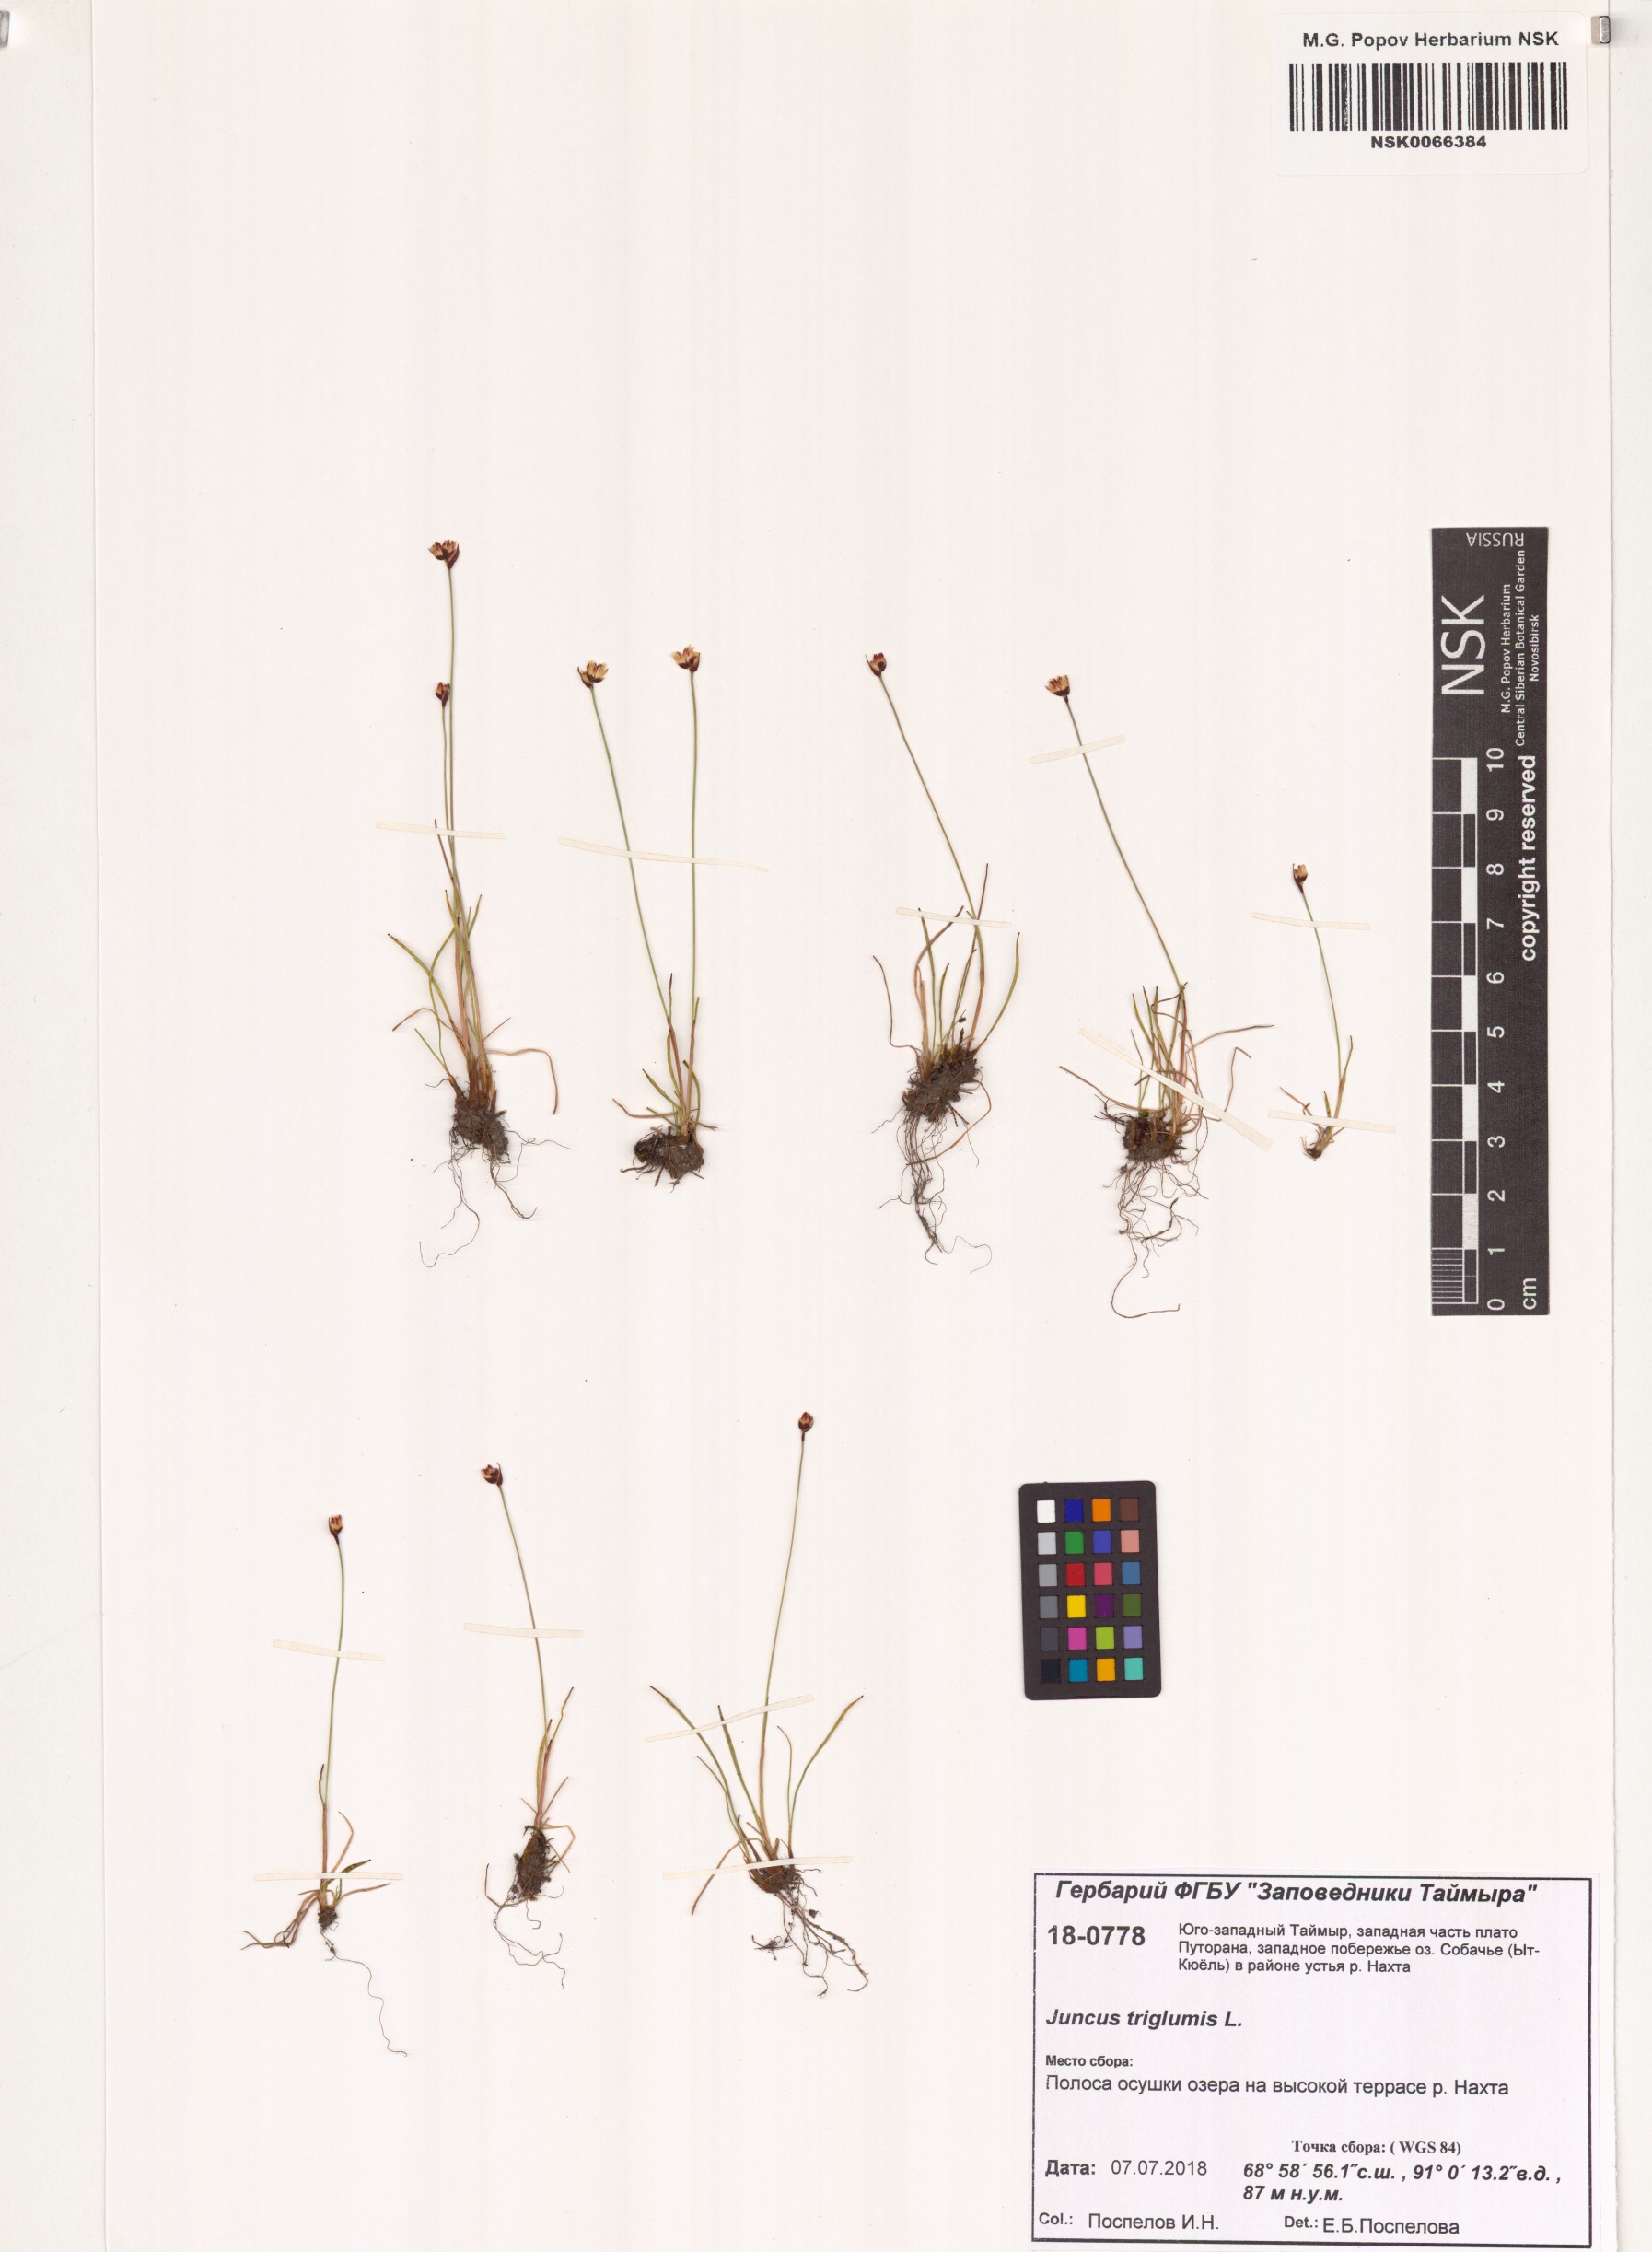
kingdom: Plantae
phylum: Tracheophyta
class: Liliopsida
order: Poales
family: Juncaceae
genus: Juncus
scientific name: Juncus triglumis
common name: Three-flowered rush
